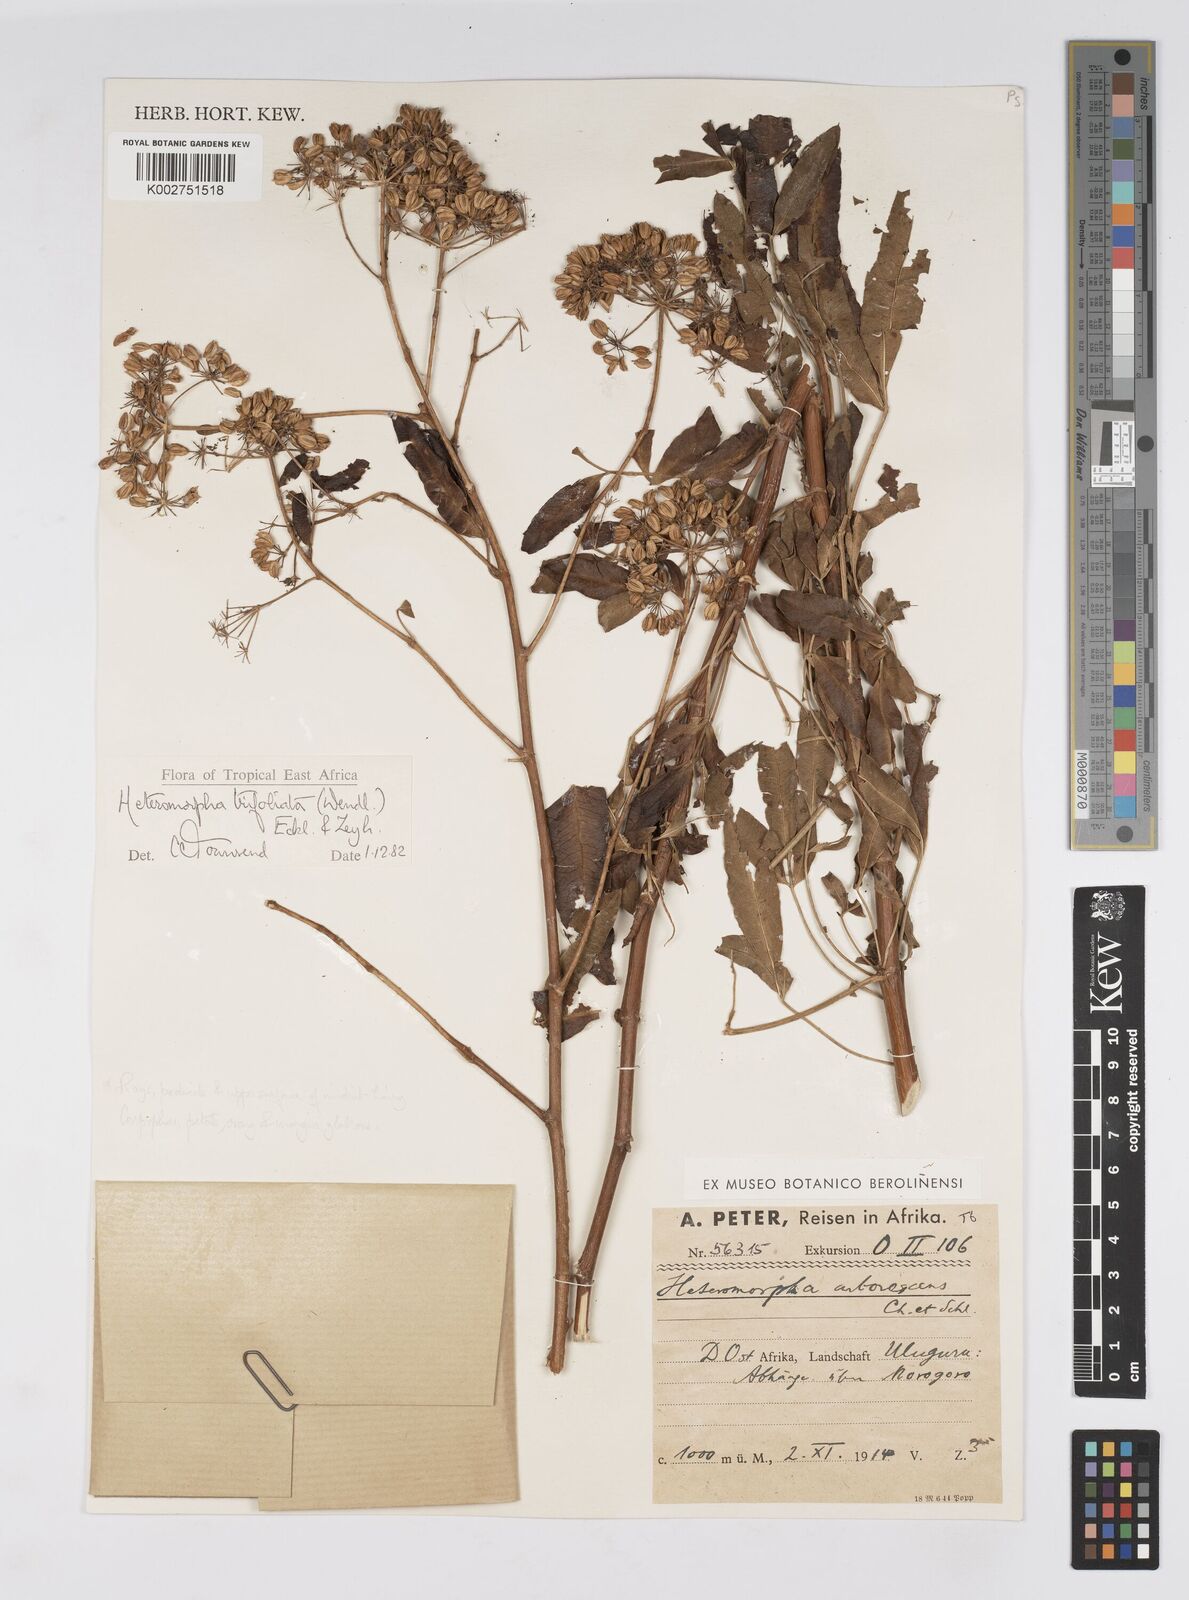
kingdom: Plantae
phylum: Tracheophyta
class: Magnoliopsida
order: Apiales
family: Apiaceae
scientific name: Apiaceae
